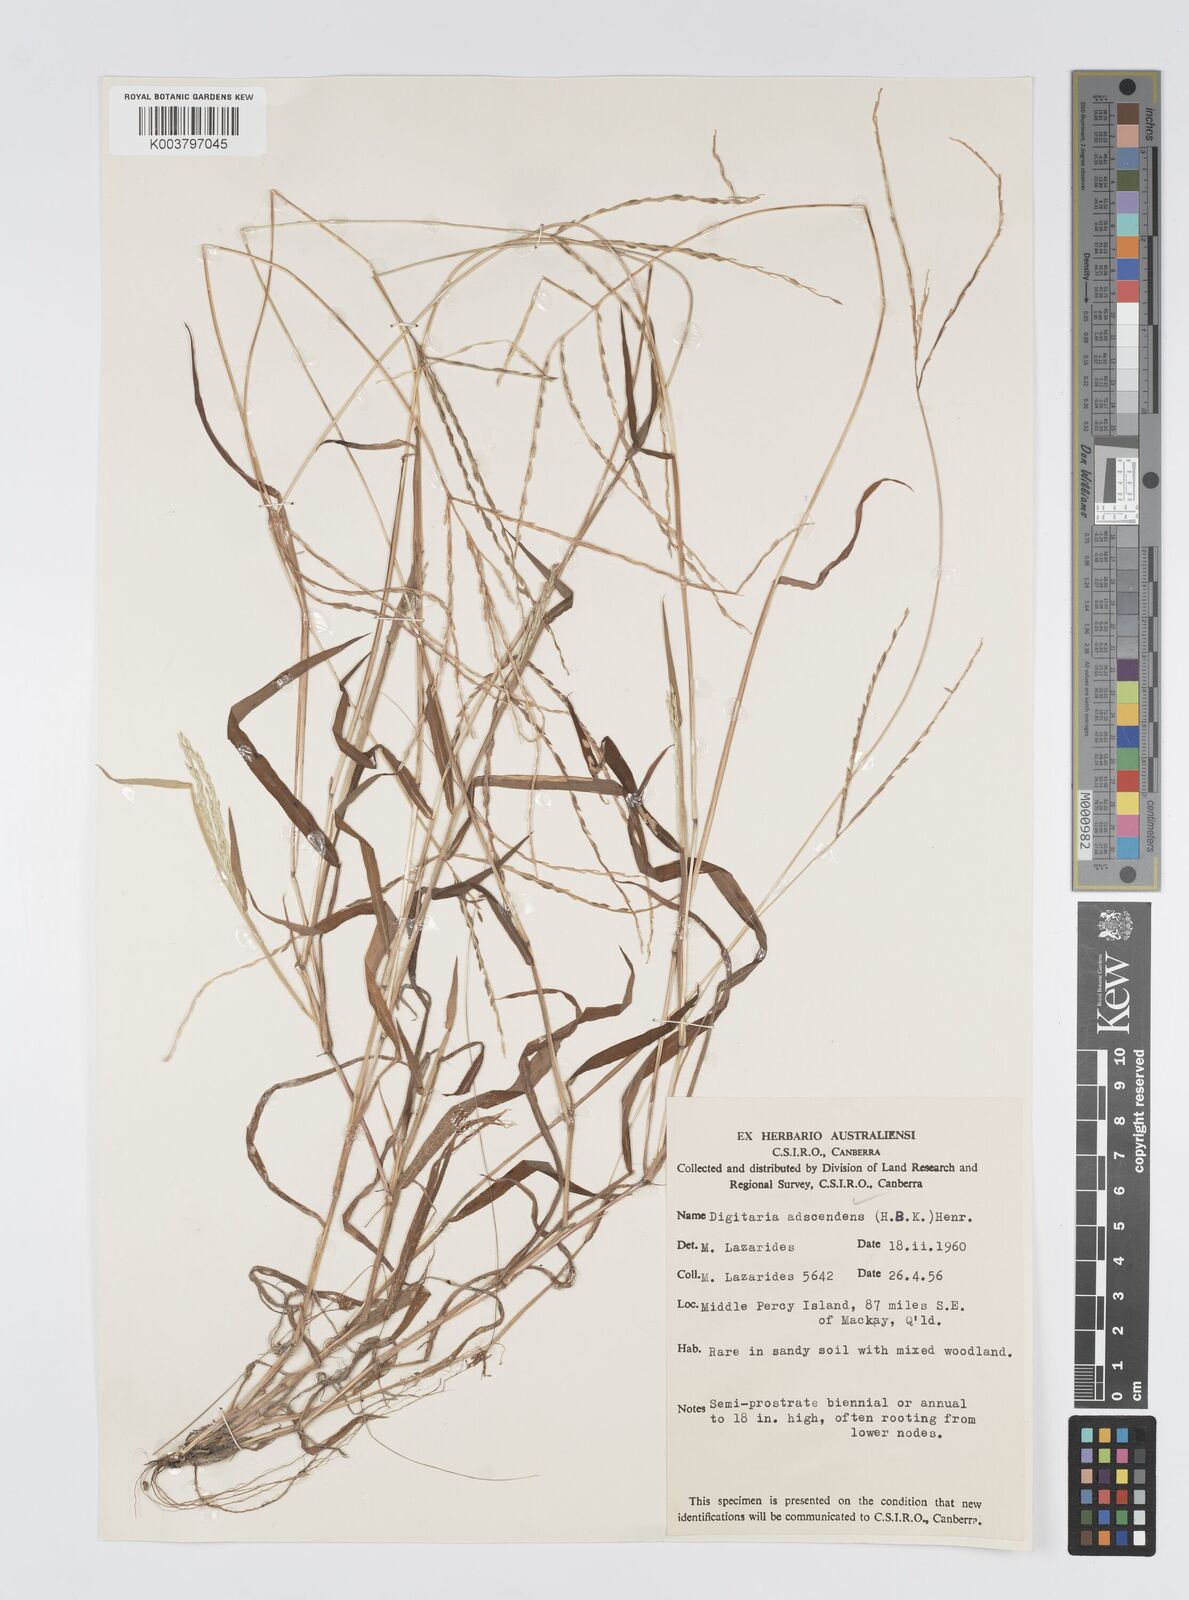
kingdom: Plantae
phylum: Tracheophyta
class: Liliopsida
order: Poales
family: Poaceae
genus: Digitaria
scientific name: Digitaria ciliaris
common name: Tropical finger-grass
